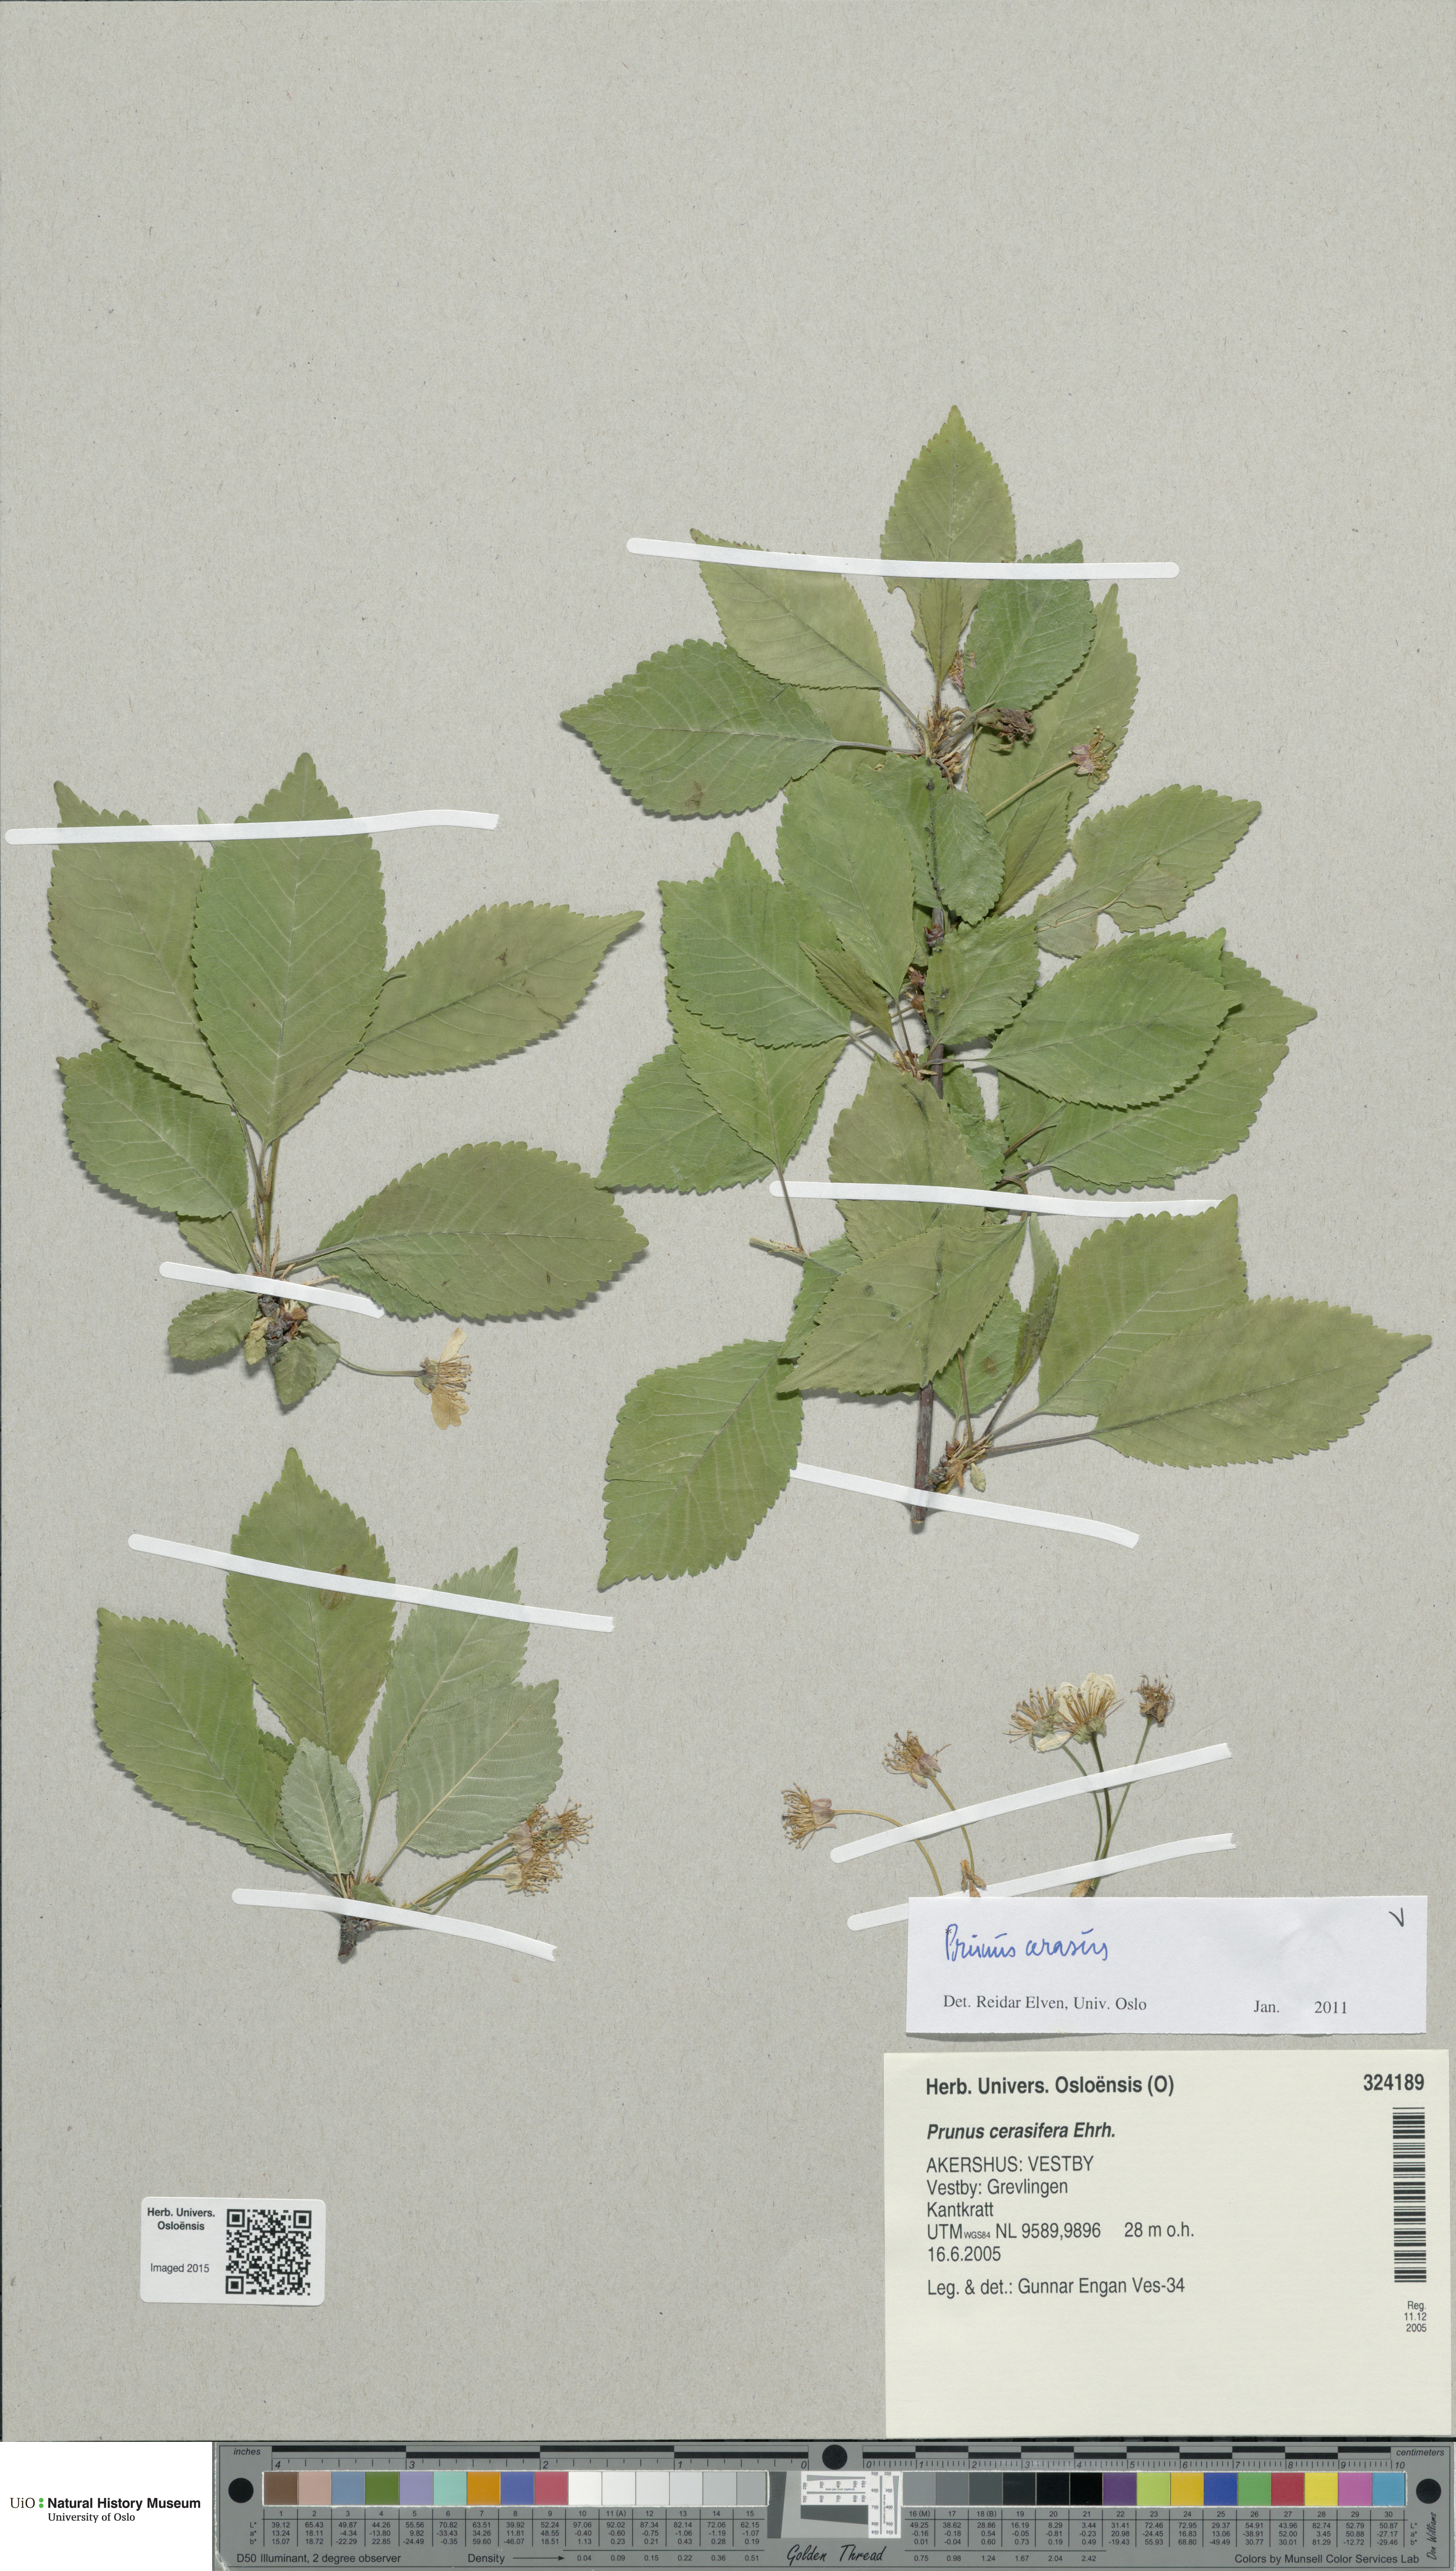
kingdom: Plantae
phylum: Tracheophyta
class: Magnoliopsida
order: Rosales
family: Rosaceae
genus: Prunus
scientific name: Prunus cerasus
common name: Morello cherry
